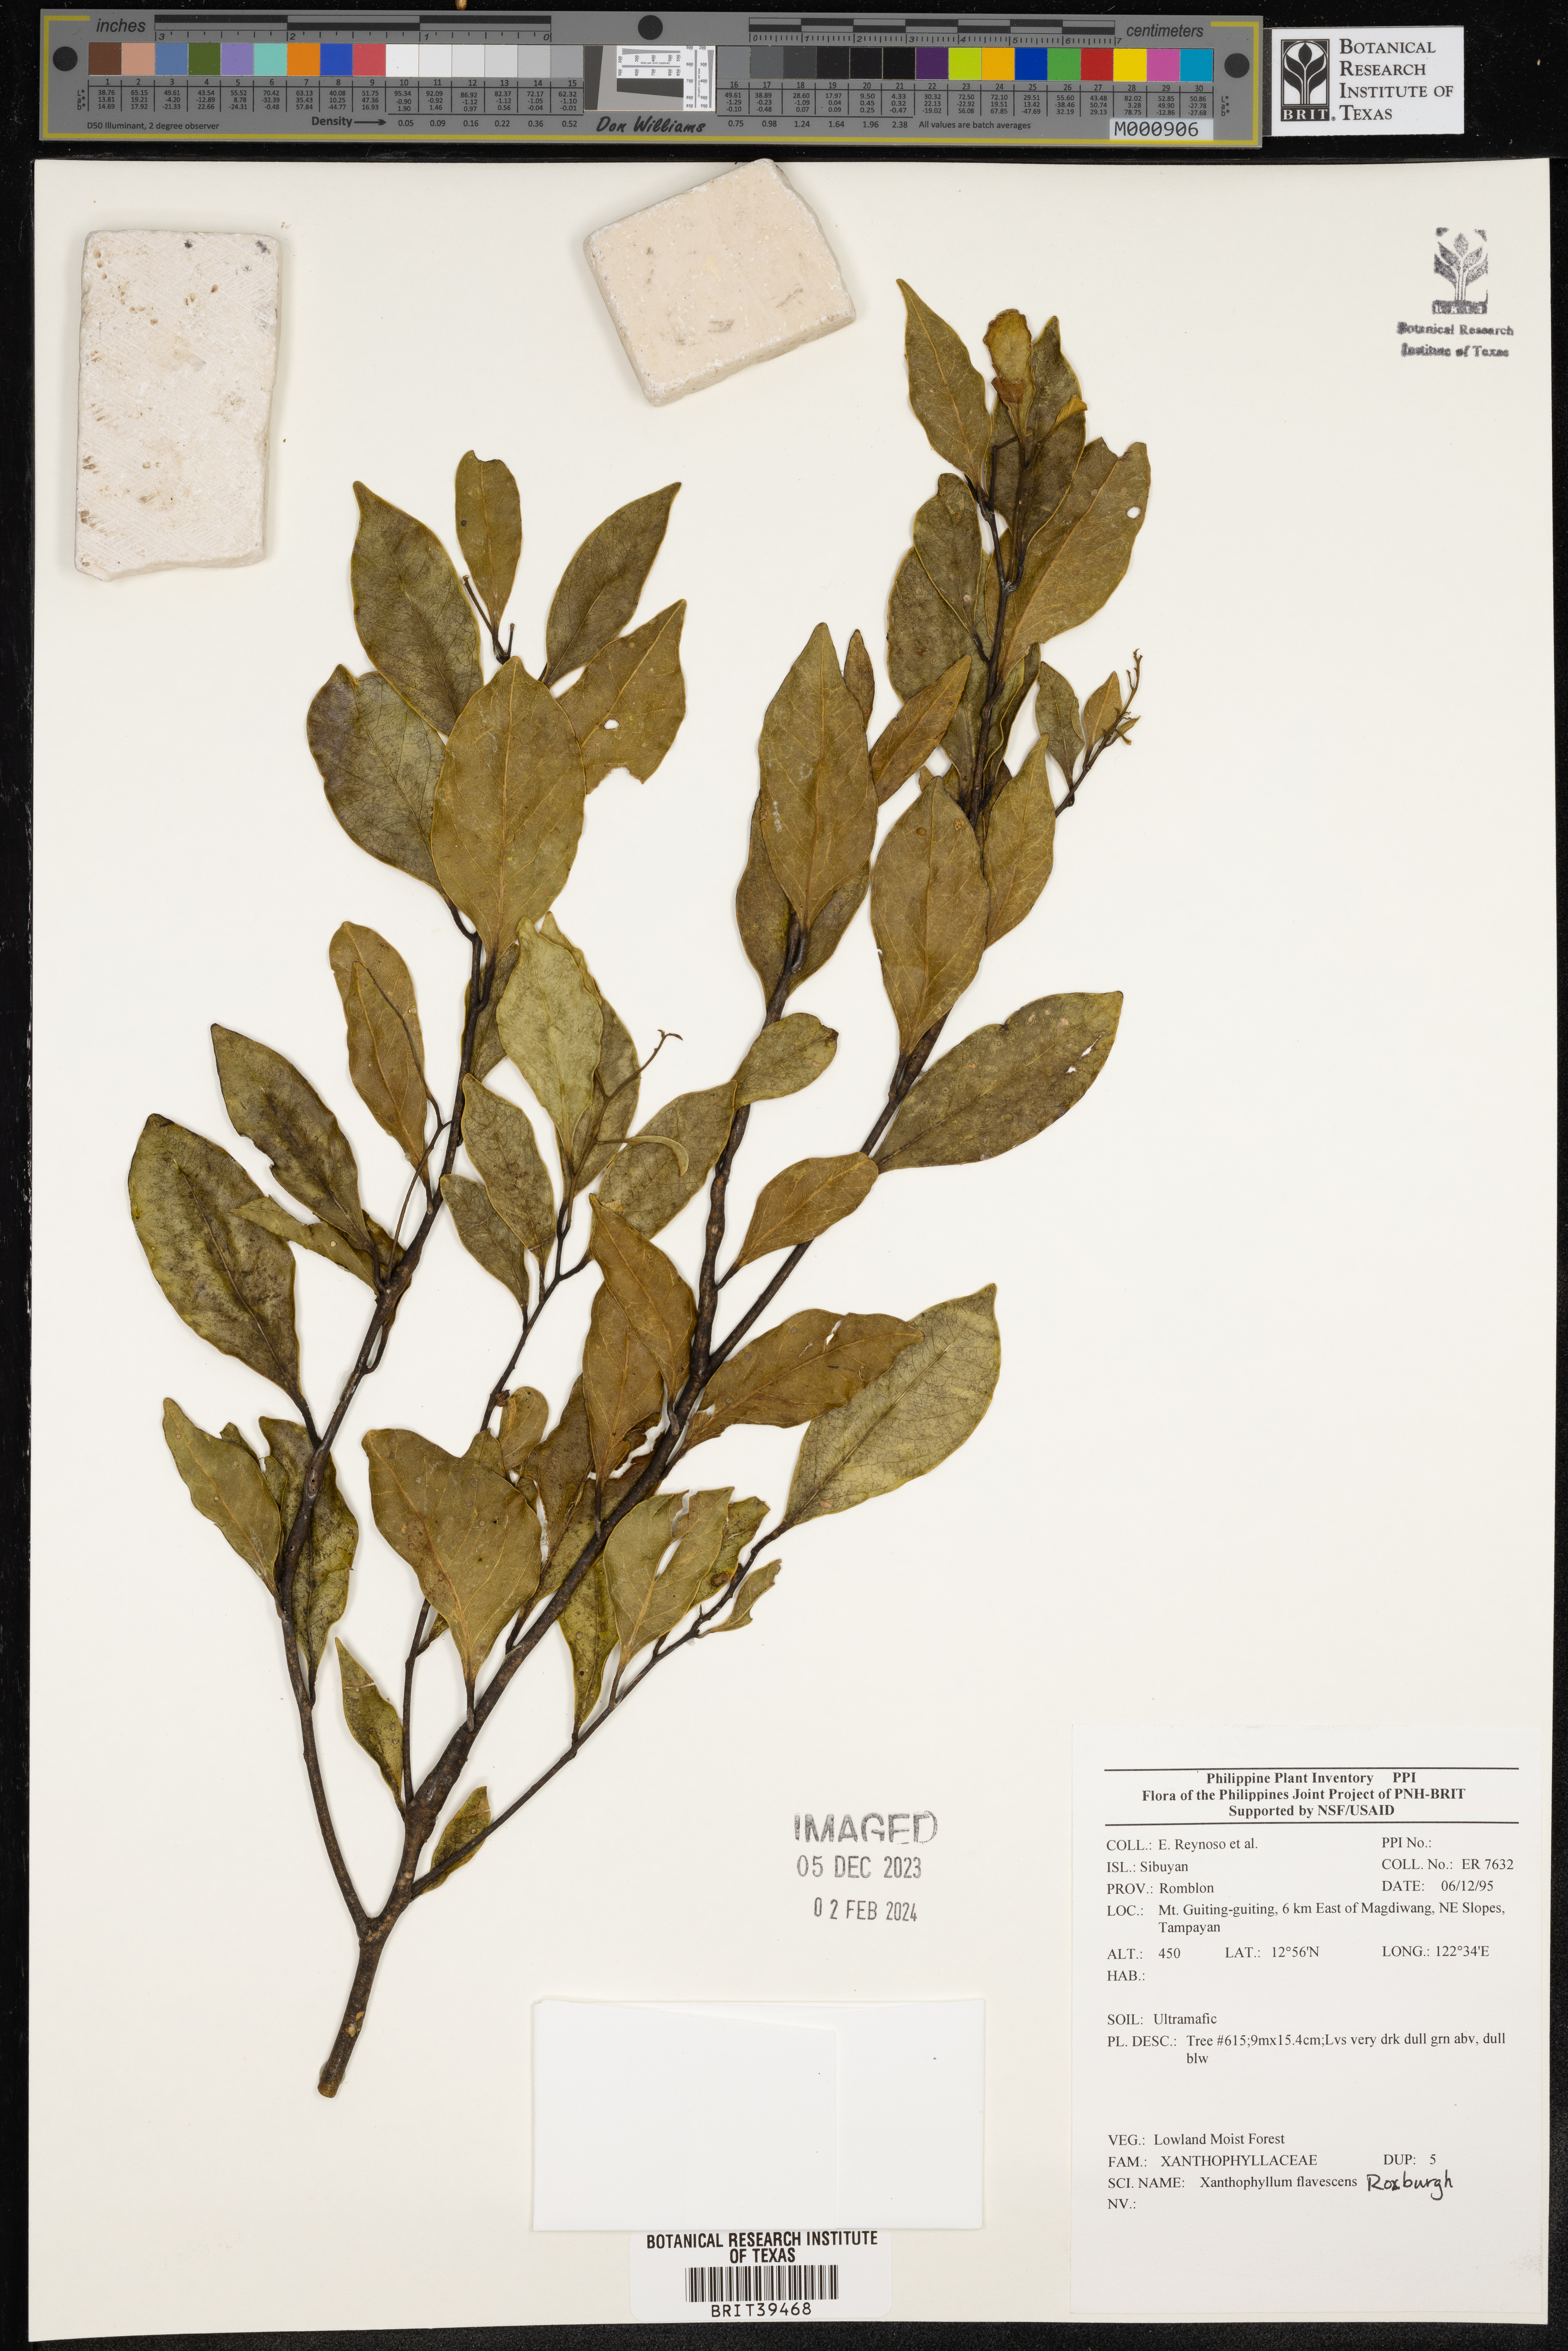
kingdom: Plantae
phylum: Tracheophyta
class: Magnoliopsida
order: Fabales
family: Polygalaceae
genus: Xanthophyllum
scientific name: Xanthophyllum flavescens
